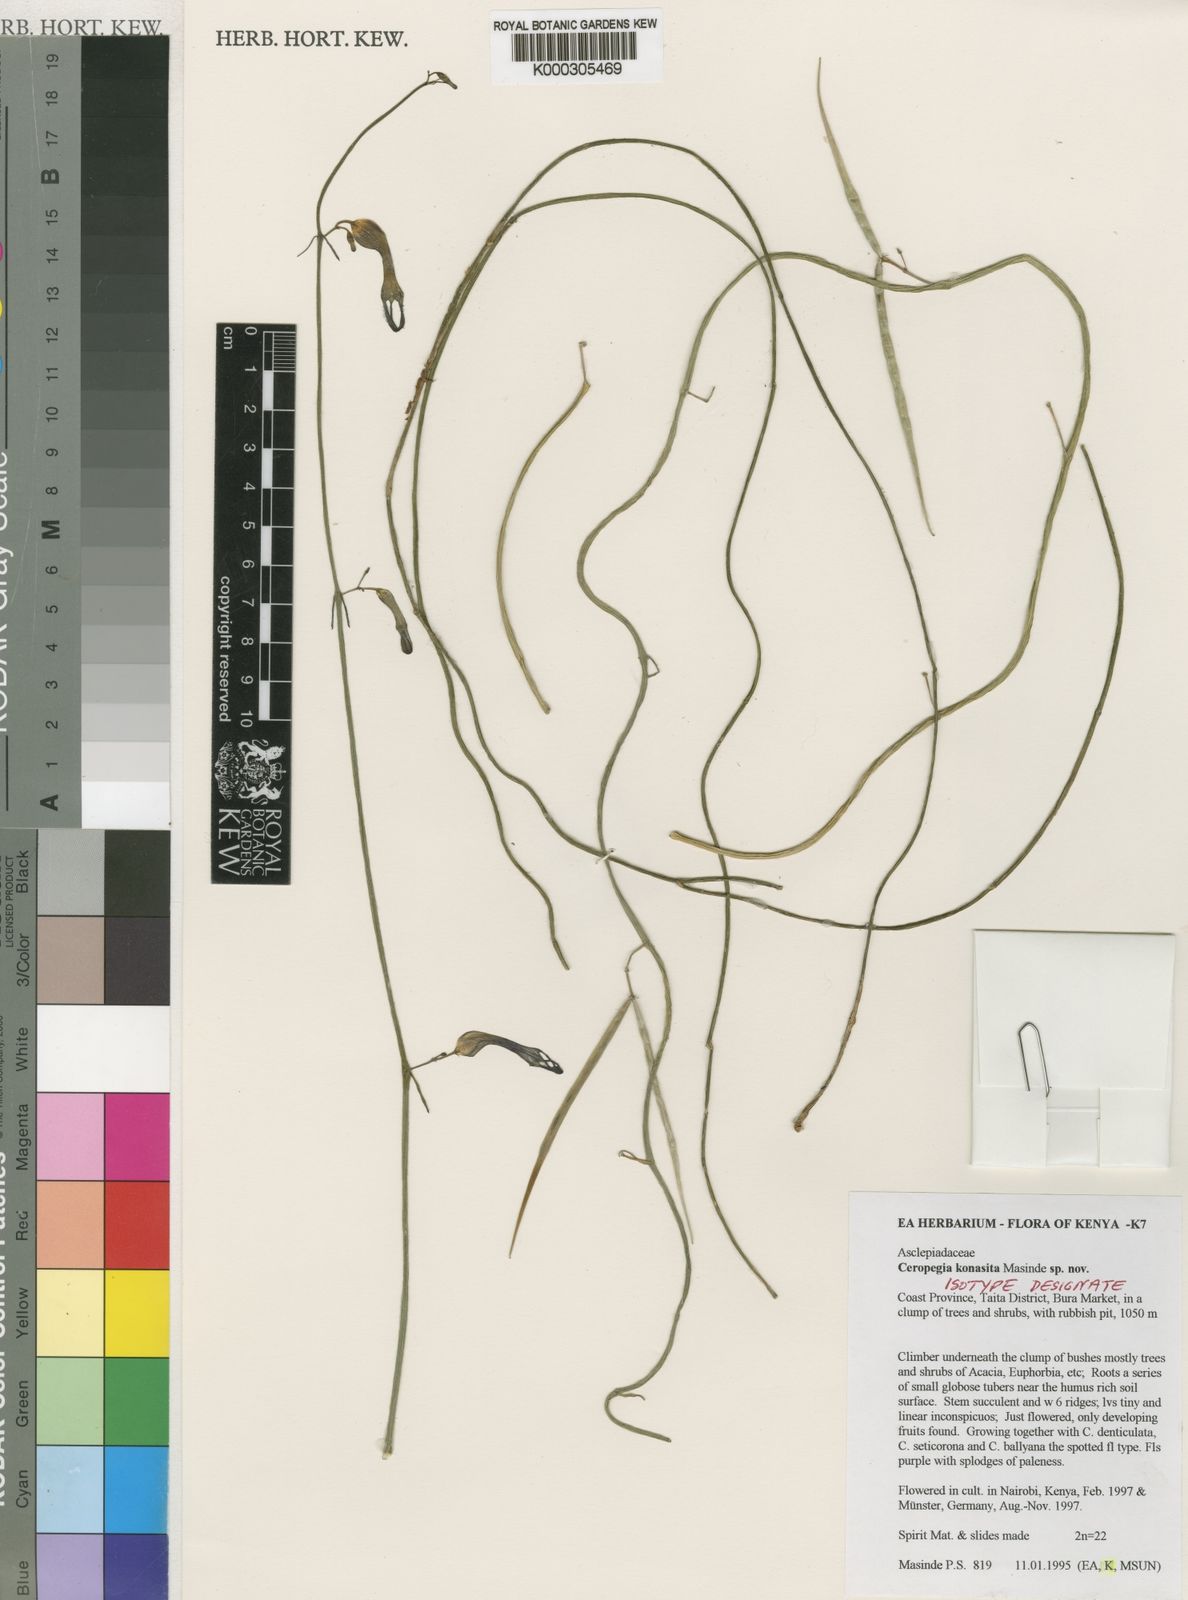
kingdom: Plantae
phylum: Tracheophyta
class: Magnoliopsida
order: Gentianales
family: Apocynaceae
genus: Ceropegia
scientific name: Ceropegia konasita
